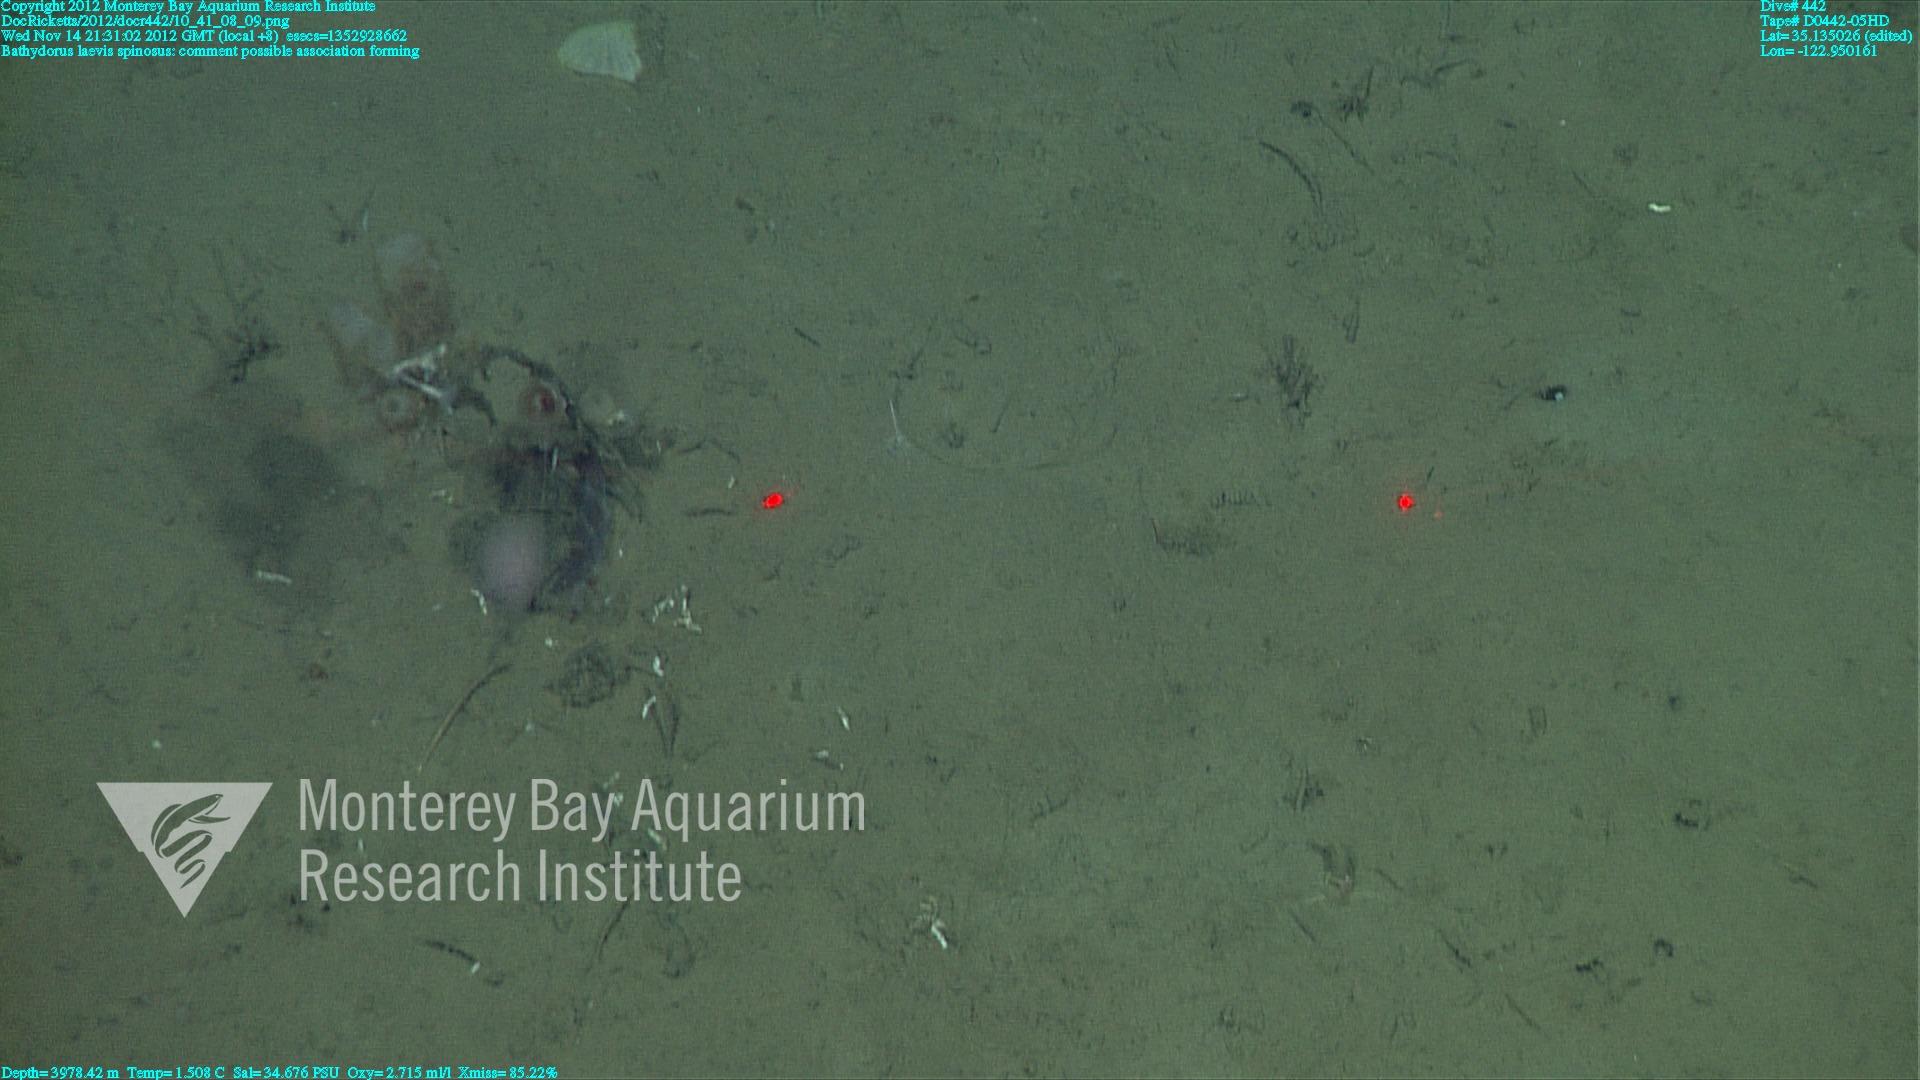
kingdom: Animalia
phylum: Porifera
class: Hexactinellida
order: Lyssacinosida
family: Rossellidae
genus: Bathydorus
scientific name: Bathydorus spinosus
